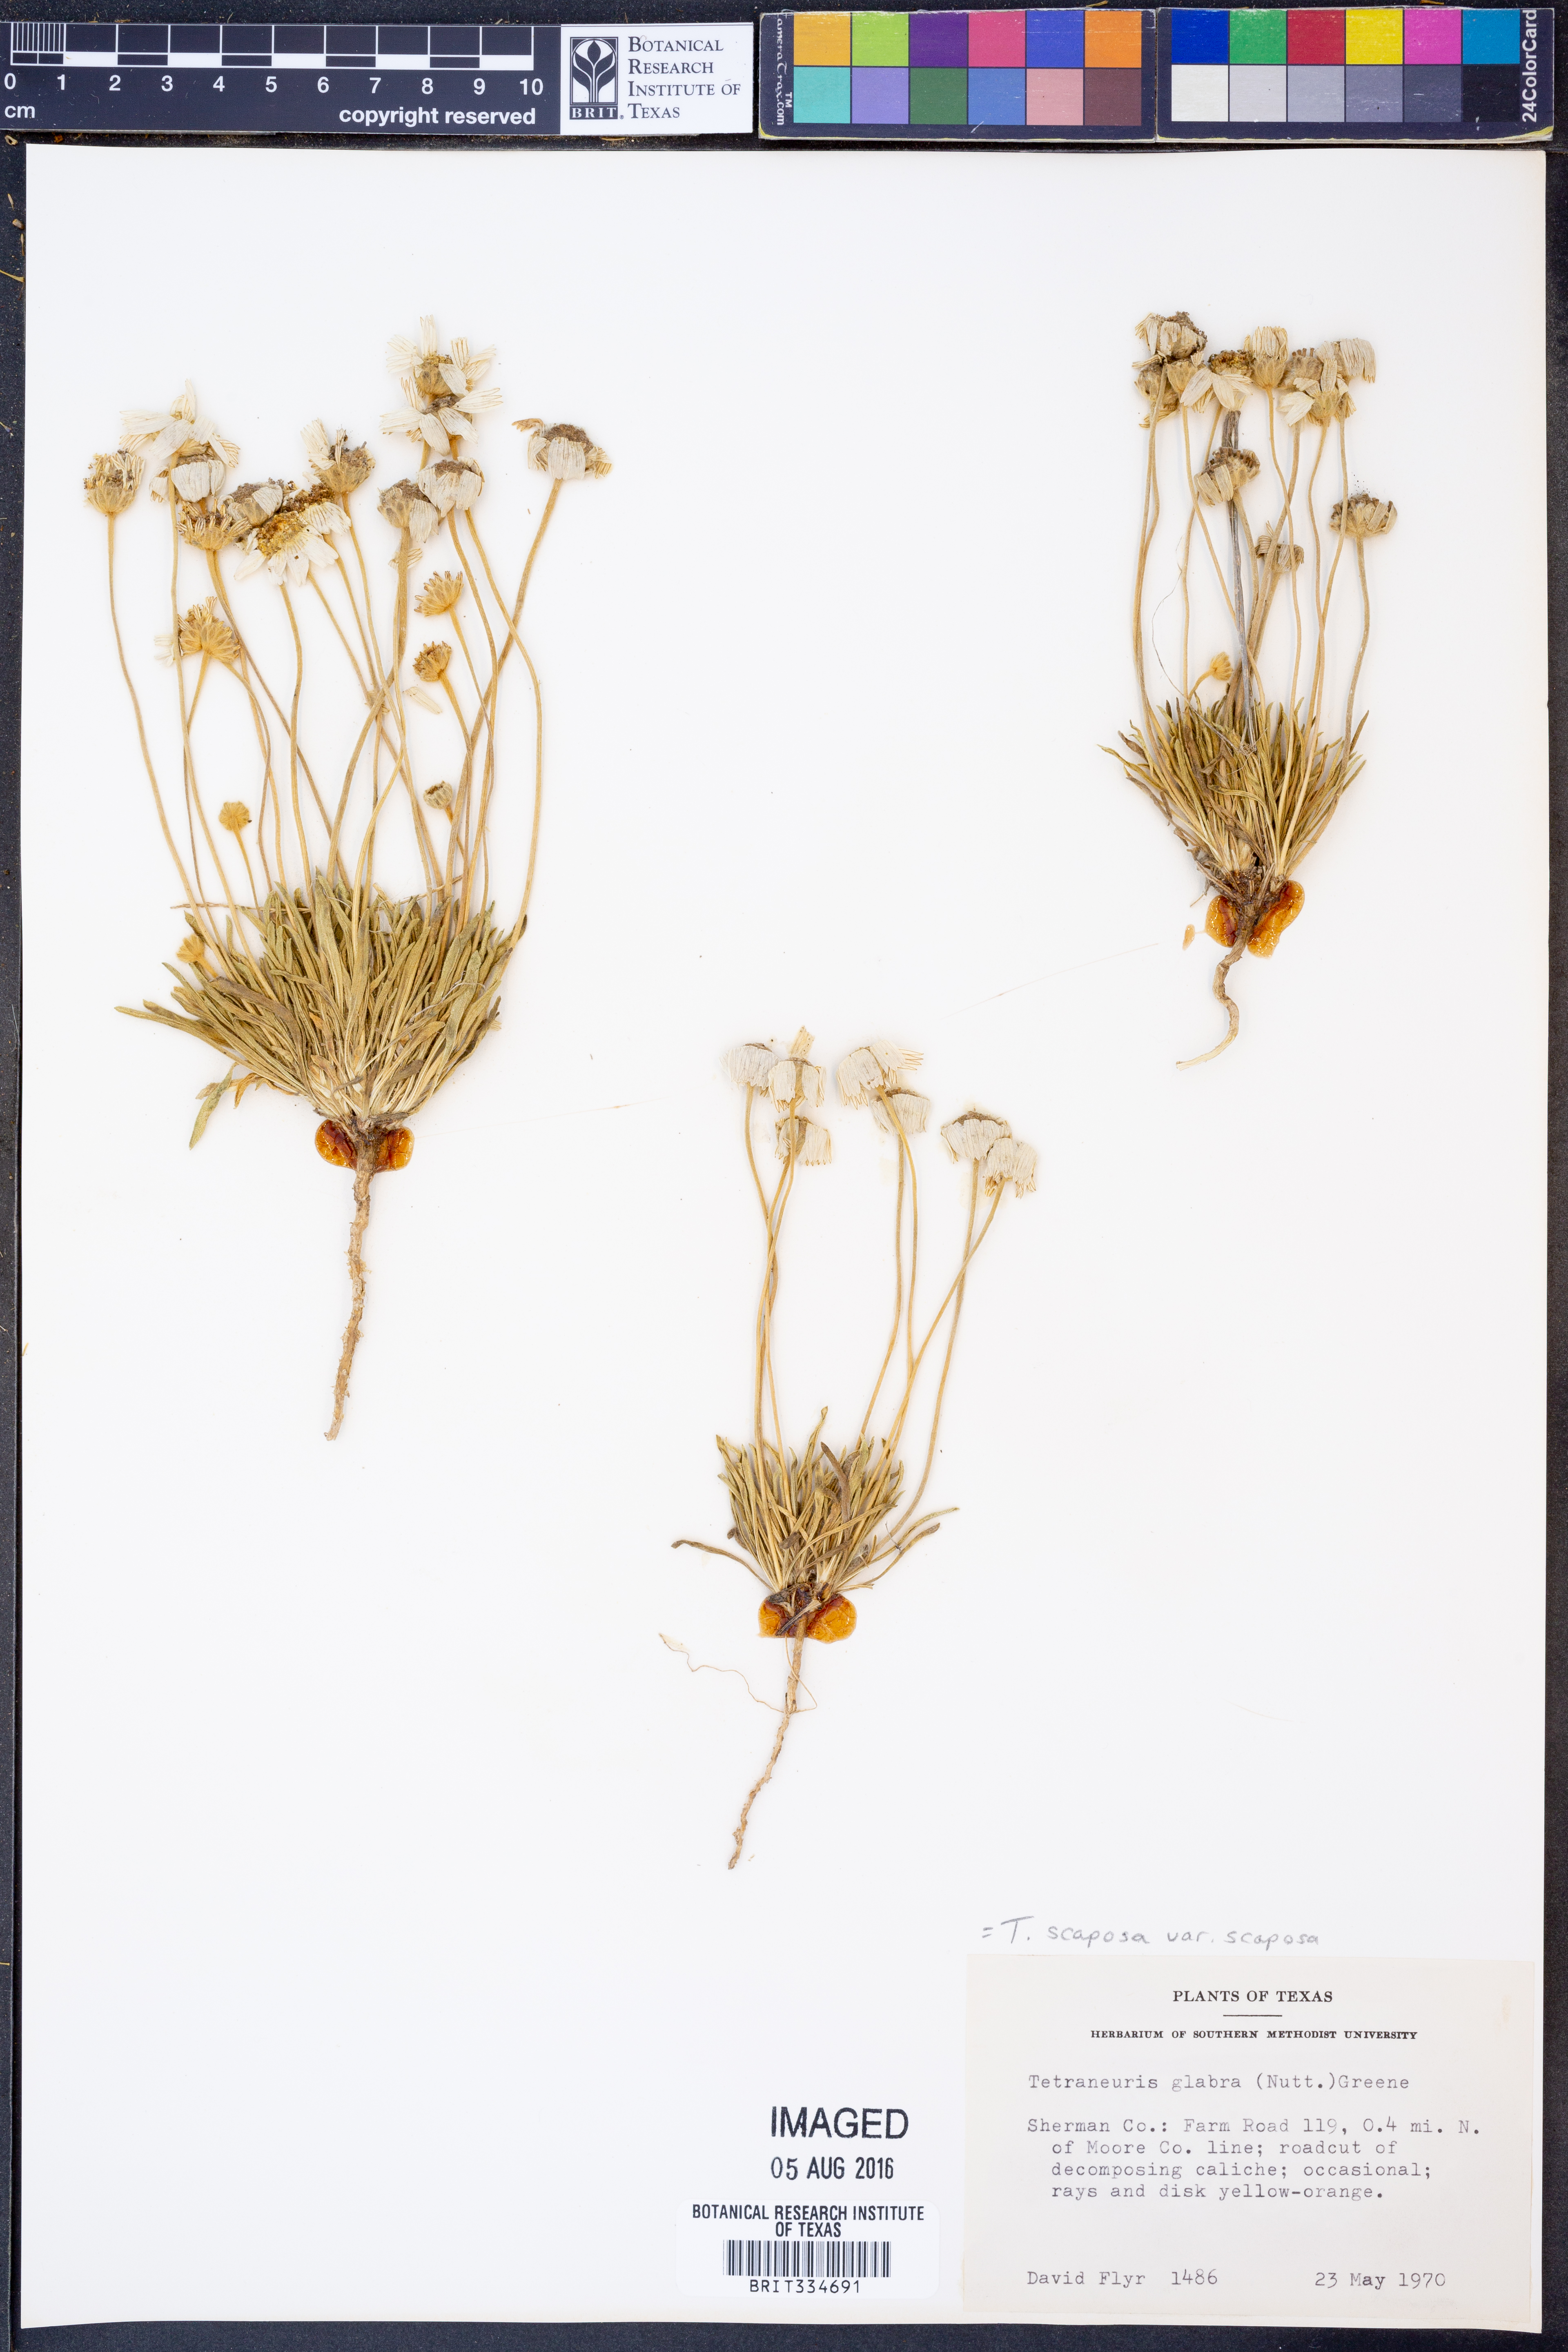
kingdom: Plantae
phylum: Tracheophyta
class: Magnoliopsida
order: Asterales
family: Asteraceae
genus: Tetraneuris
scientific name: Tetraneuris scaposa
